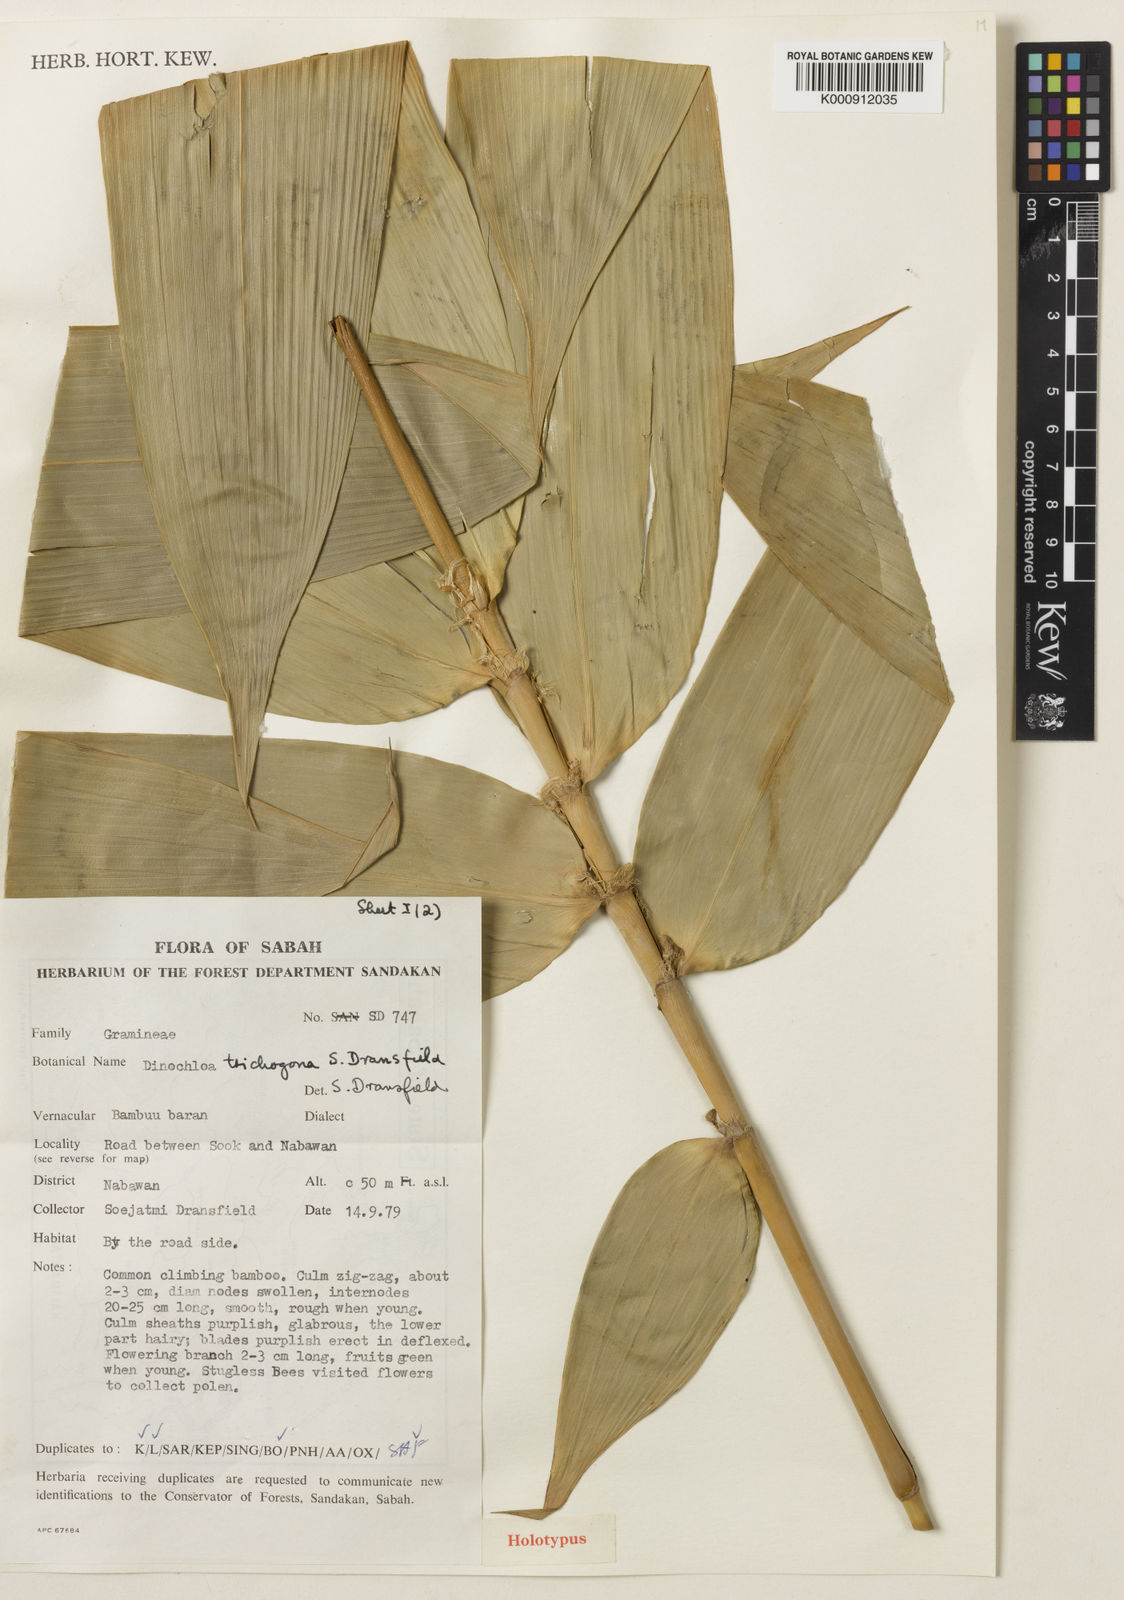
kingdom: Plantae
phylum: Tracheophyta
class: Liliopsida
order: Poales
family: Poaceae
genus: Dinochloa
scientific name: Dinochloa trichogona
